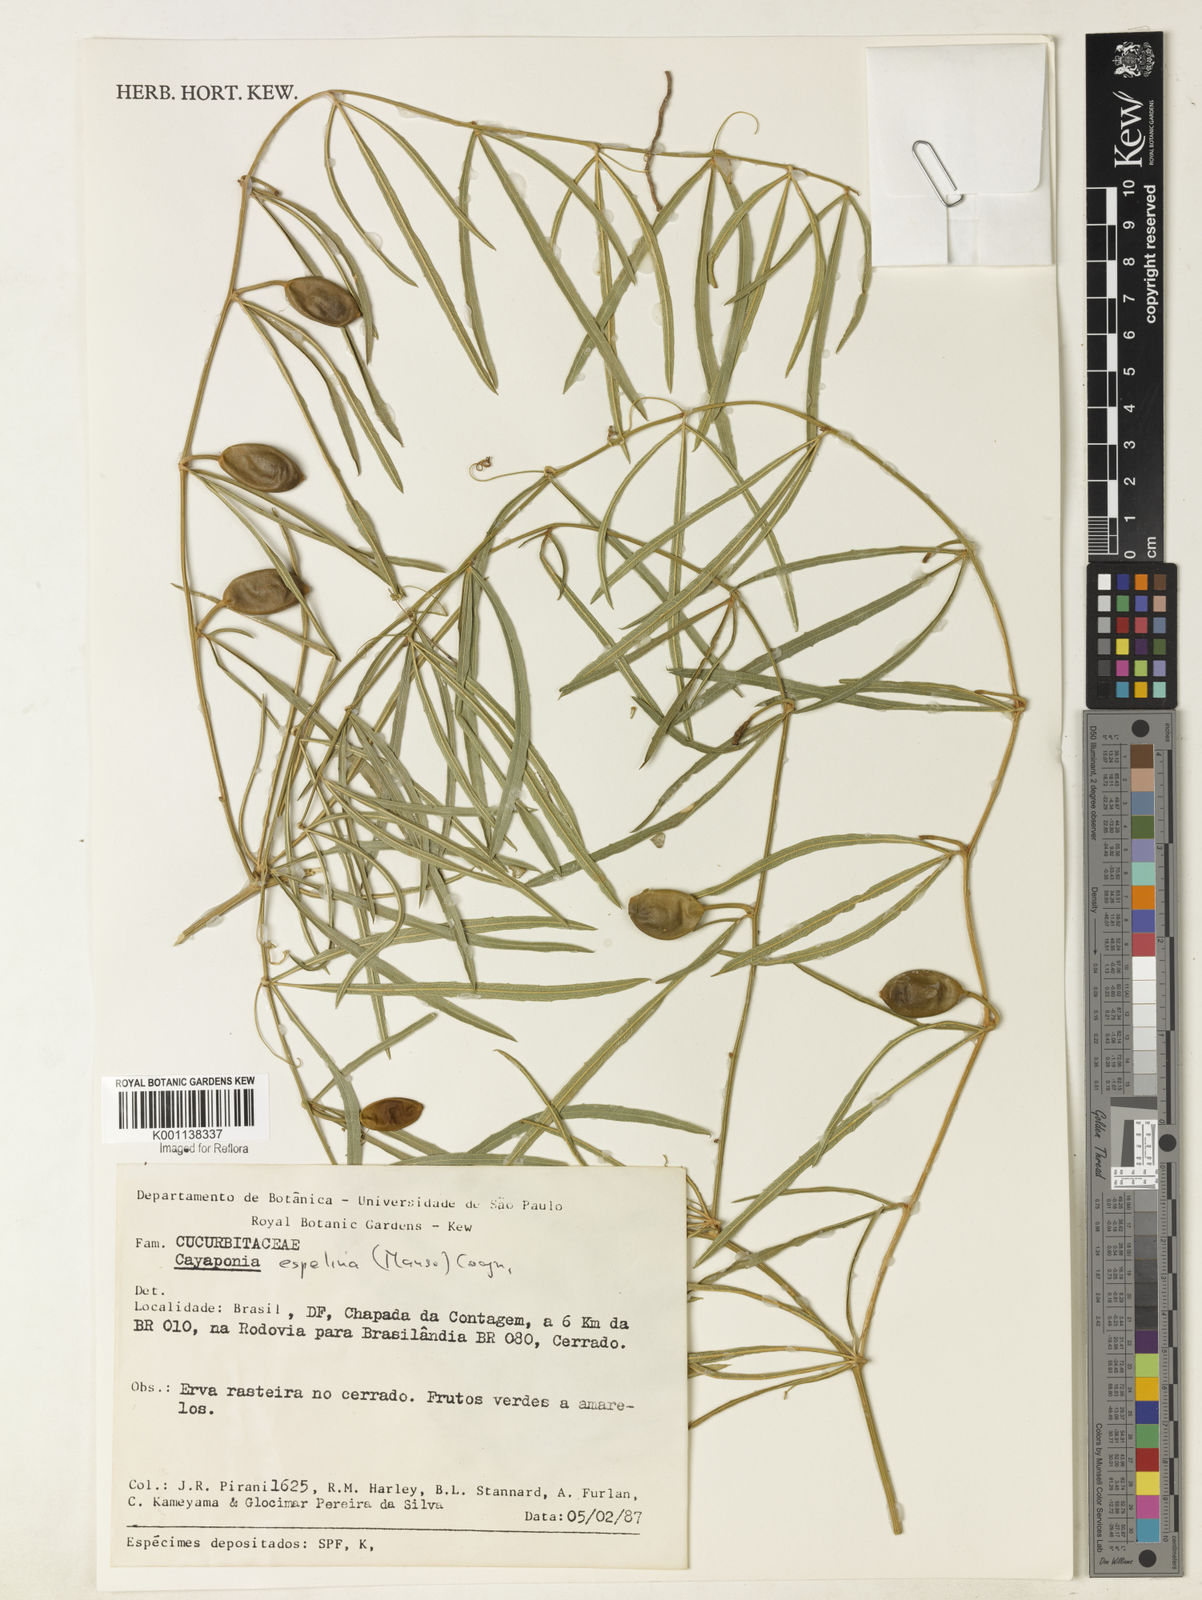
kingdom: Plantae
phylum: Tracheophyta
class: Magnoliopsida
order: Cucurbitales
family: Cucurbitaceae
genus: Cayaponia
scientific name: Cayaponia espelina
